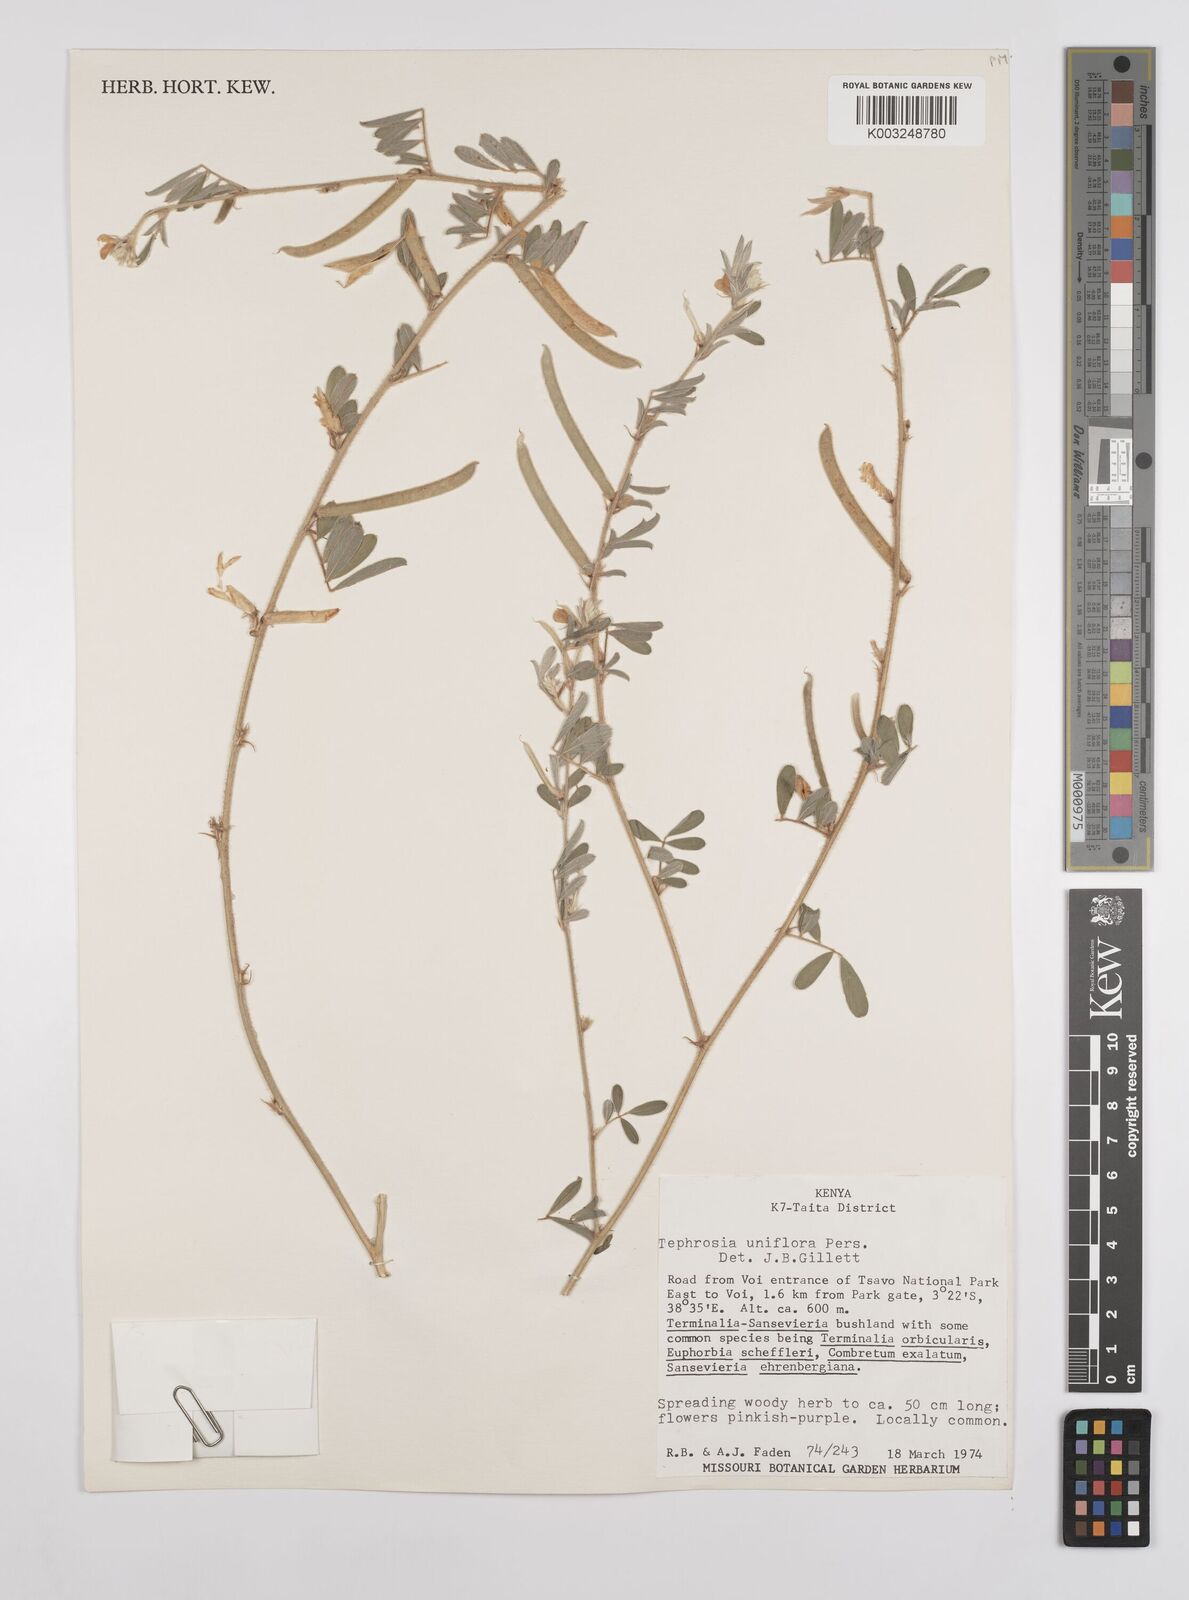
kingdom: Plantae
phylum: Tracheophyta
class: Magnoliopsida
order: Fabales
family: Fabaceae
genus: Tephrosia
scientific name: Tephrosia uniflora
